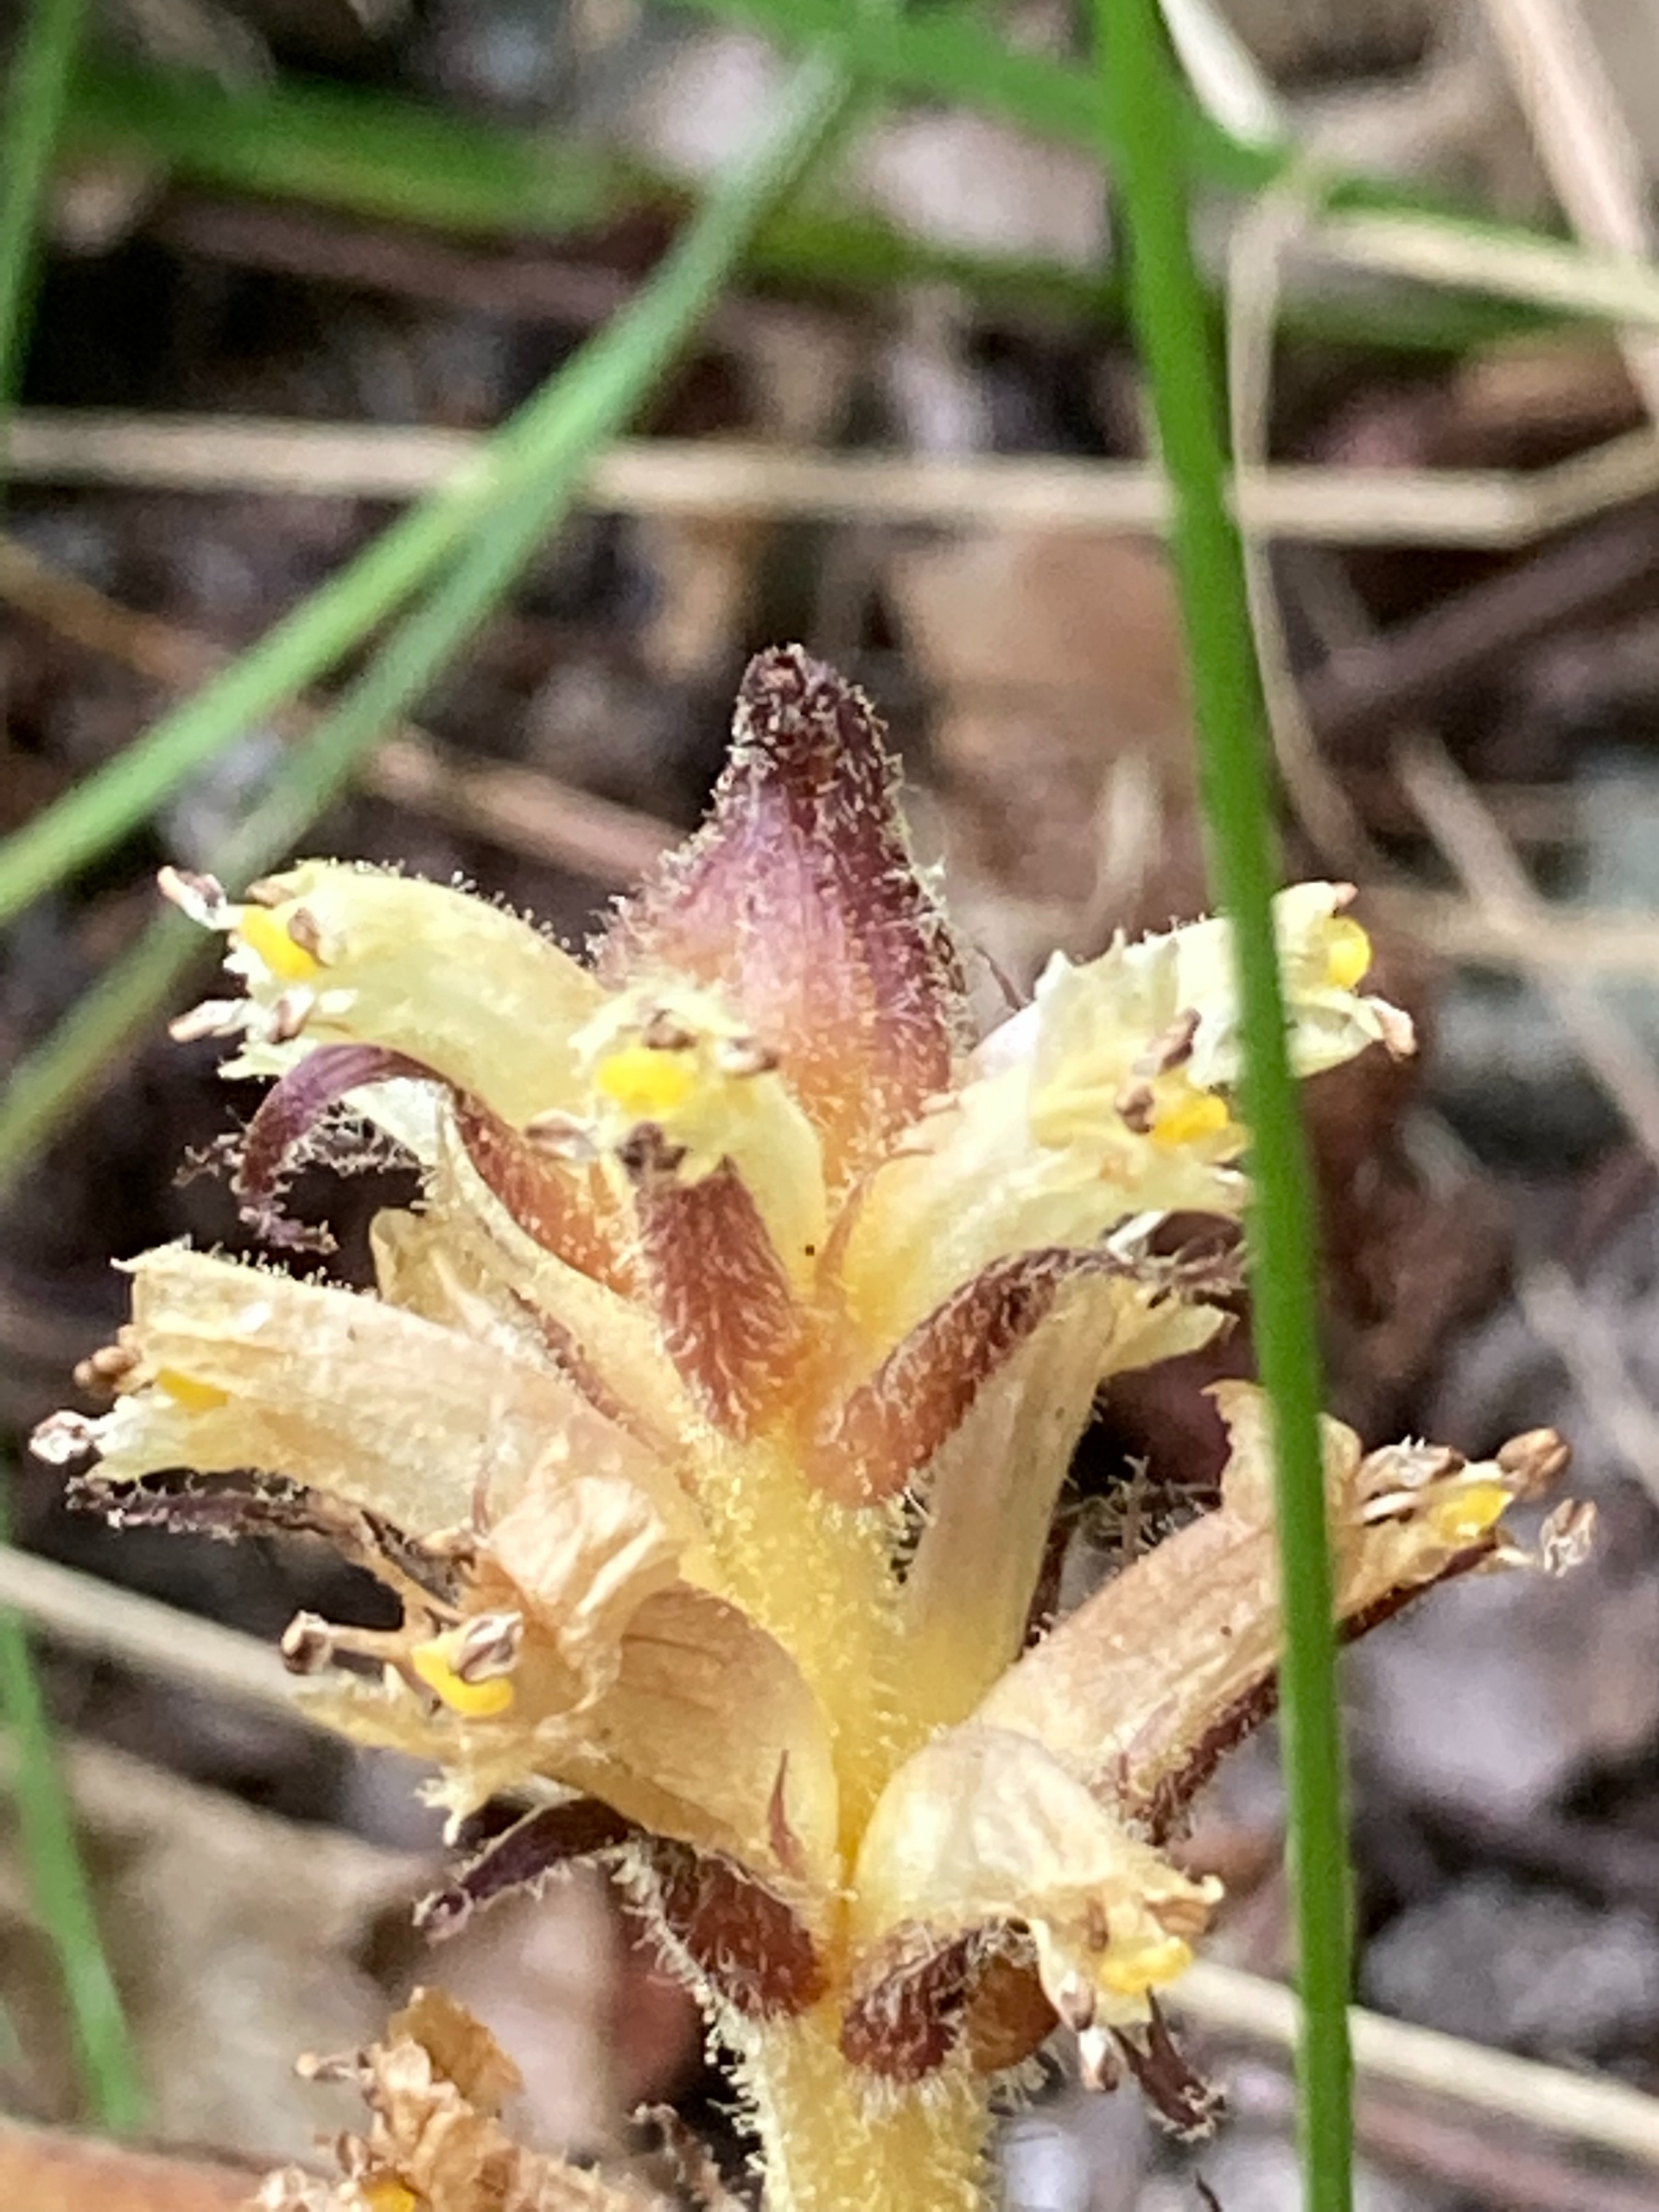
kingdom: Plantae
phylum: Tracheophyta
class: Magnoliopsida
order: Lamiales
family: Orobanchaceae
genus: Orobanche
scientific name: Orobanche hederae
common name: Vedbend-gyvelkvæler
